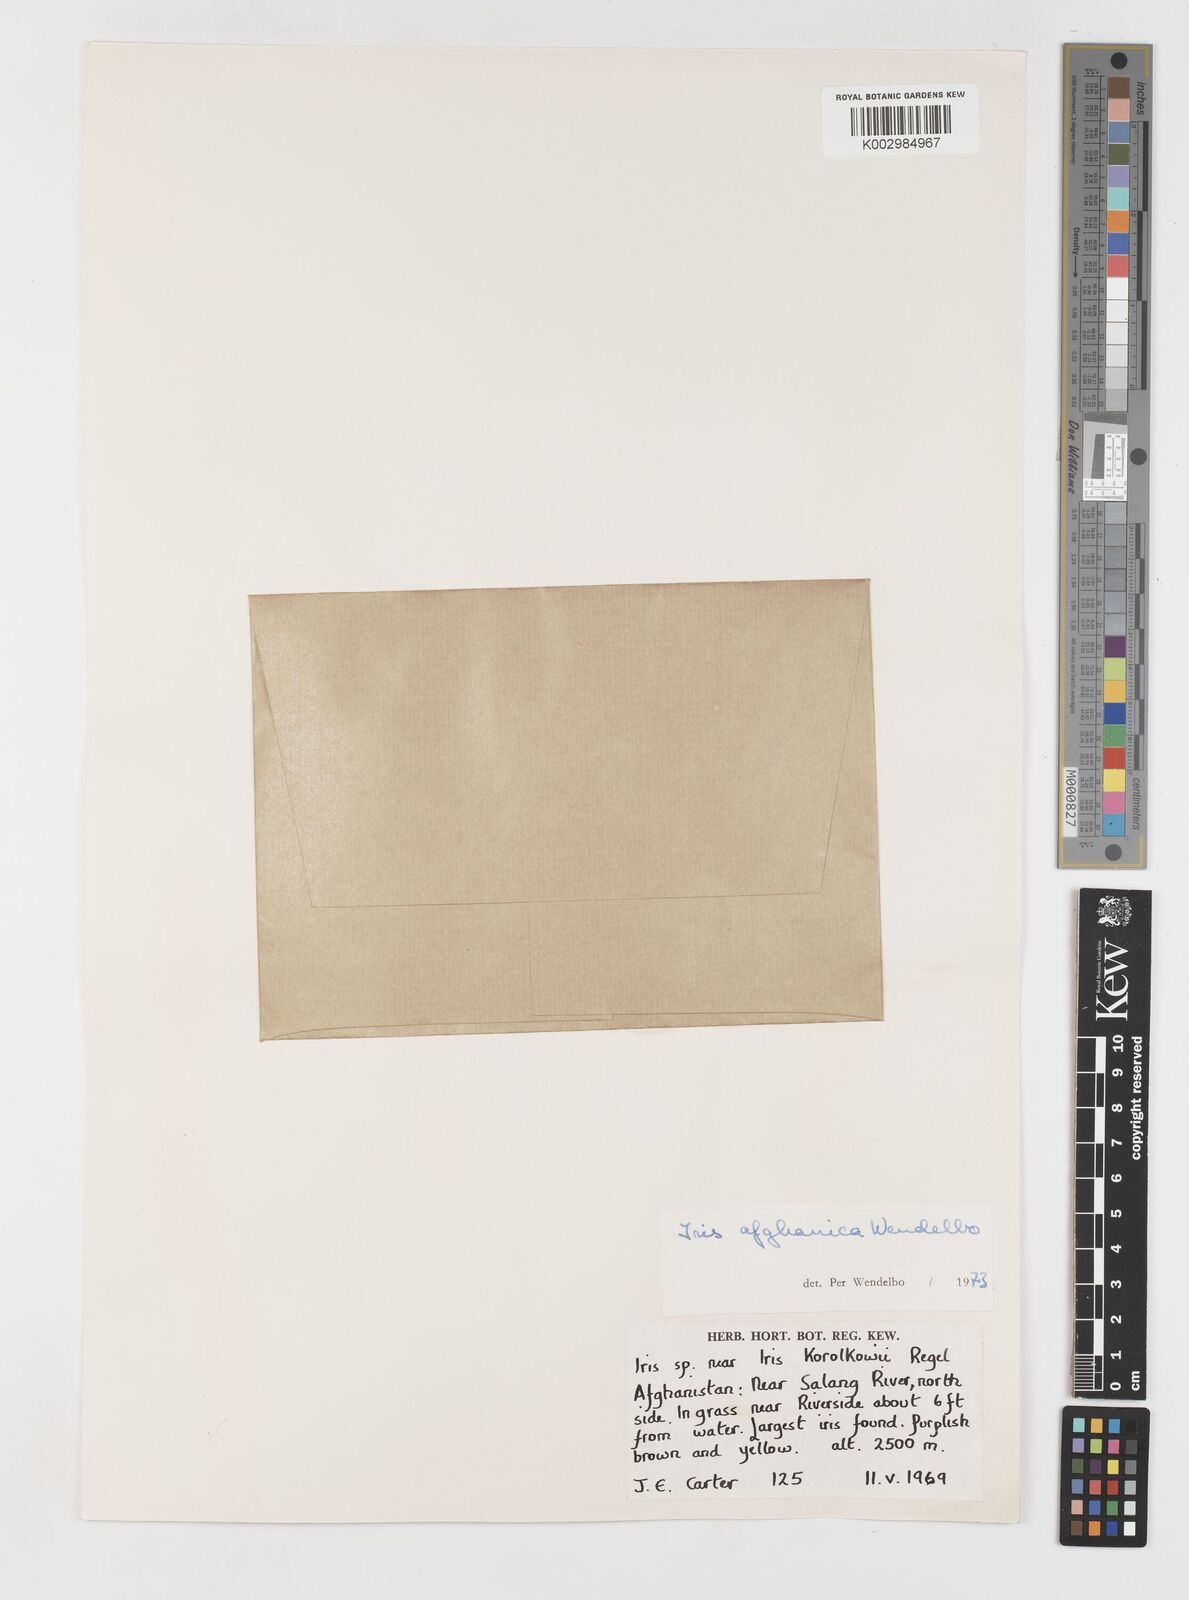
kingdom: Plantae
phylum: Tracheophyta
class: Liliopsida
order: Asparagales
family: Iridaceae
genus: Iris
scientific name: Iris afghanica
